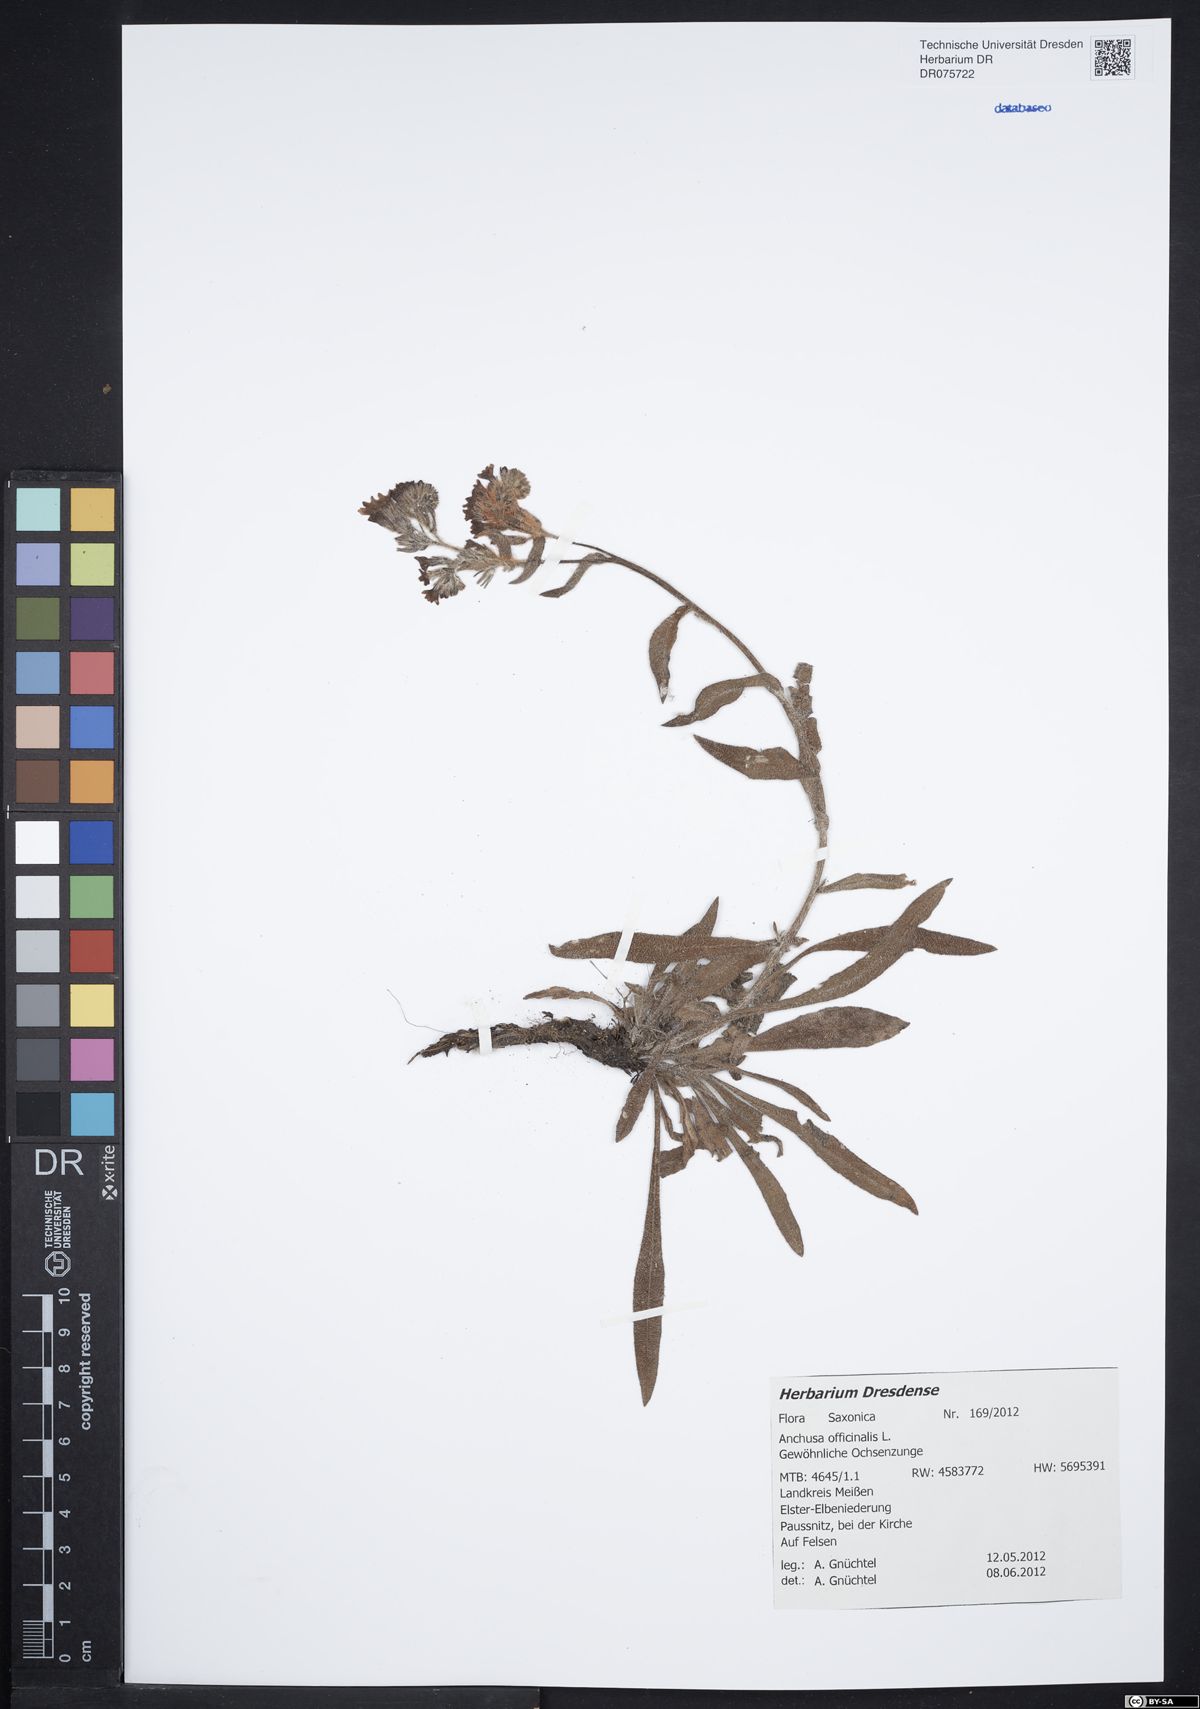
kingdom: Plantae
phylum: Tracheophyta
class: Magnoliopsida
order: Boraginales
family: Boraginaceae
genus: Anchusa
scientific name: Anchusa officinalis
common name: Alkanet
